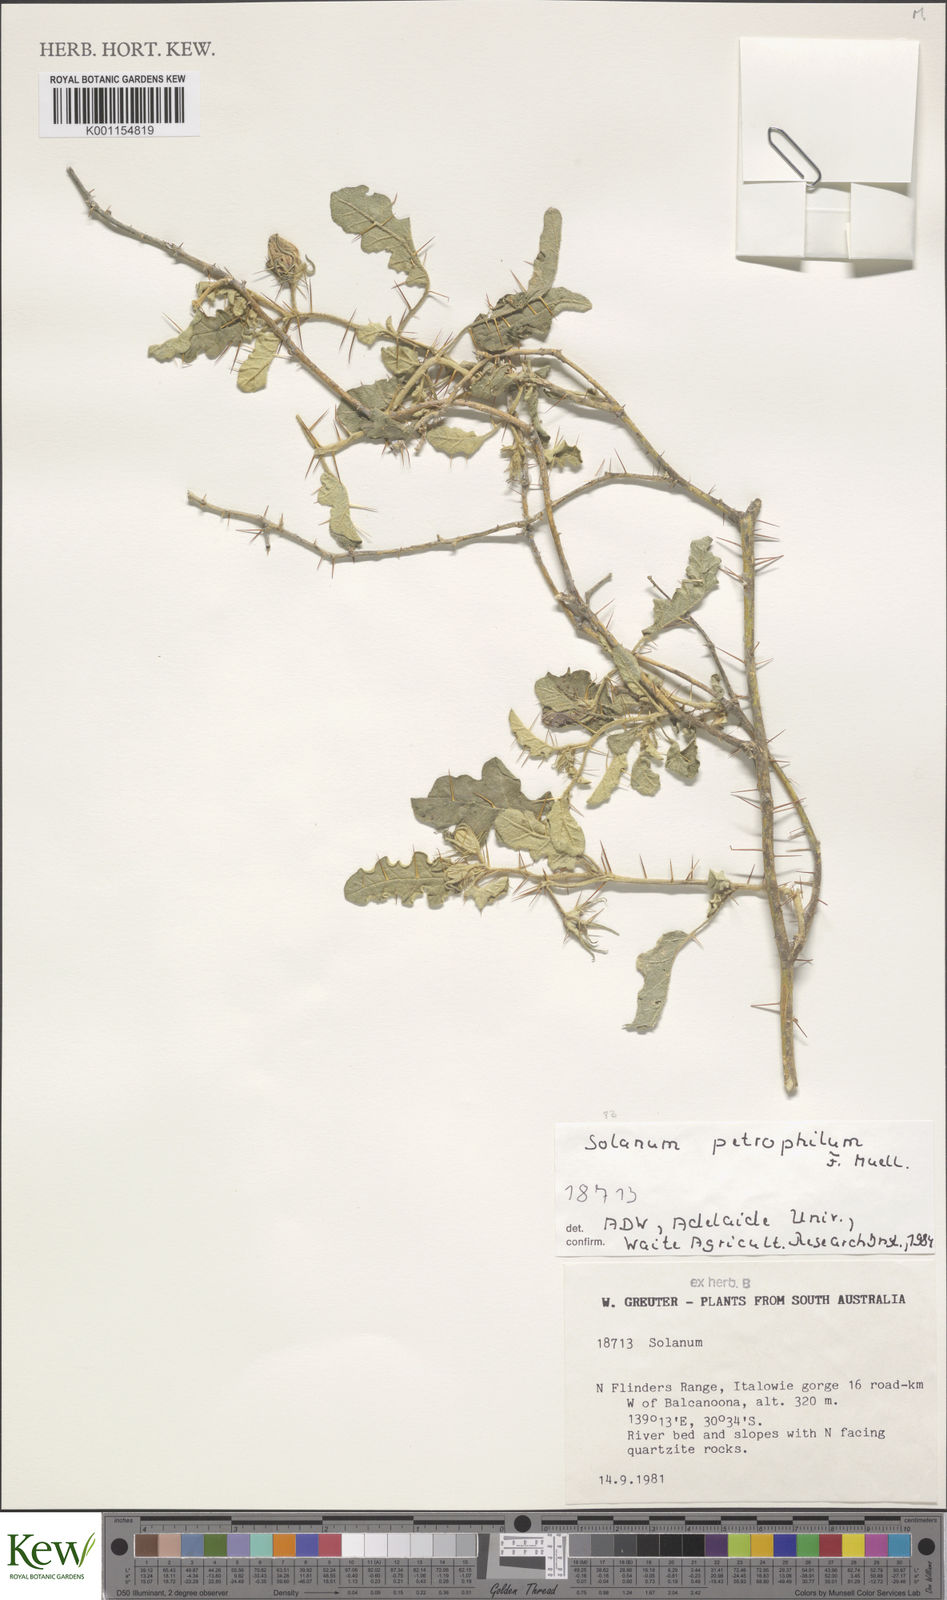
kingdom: Plantae
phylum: Tracheophyta
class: Magnoliopsida
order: Solanales
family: Solanaceae
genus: Solanum
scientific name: Solanum petrophilum
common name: Rock nightshade
